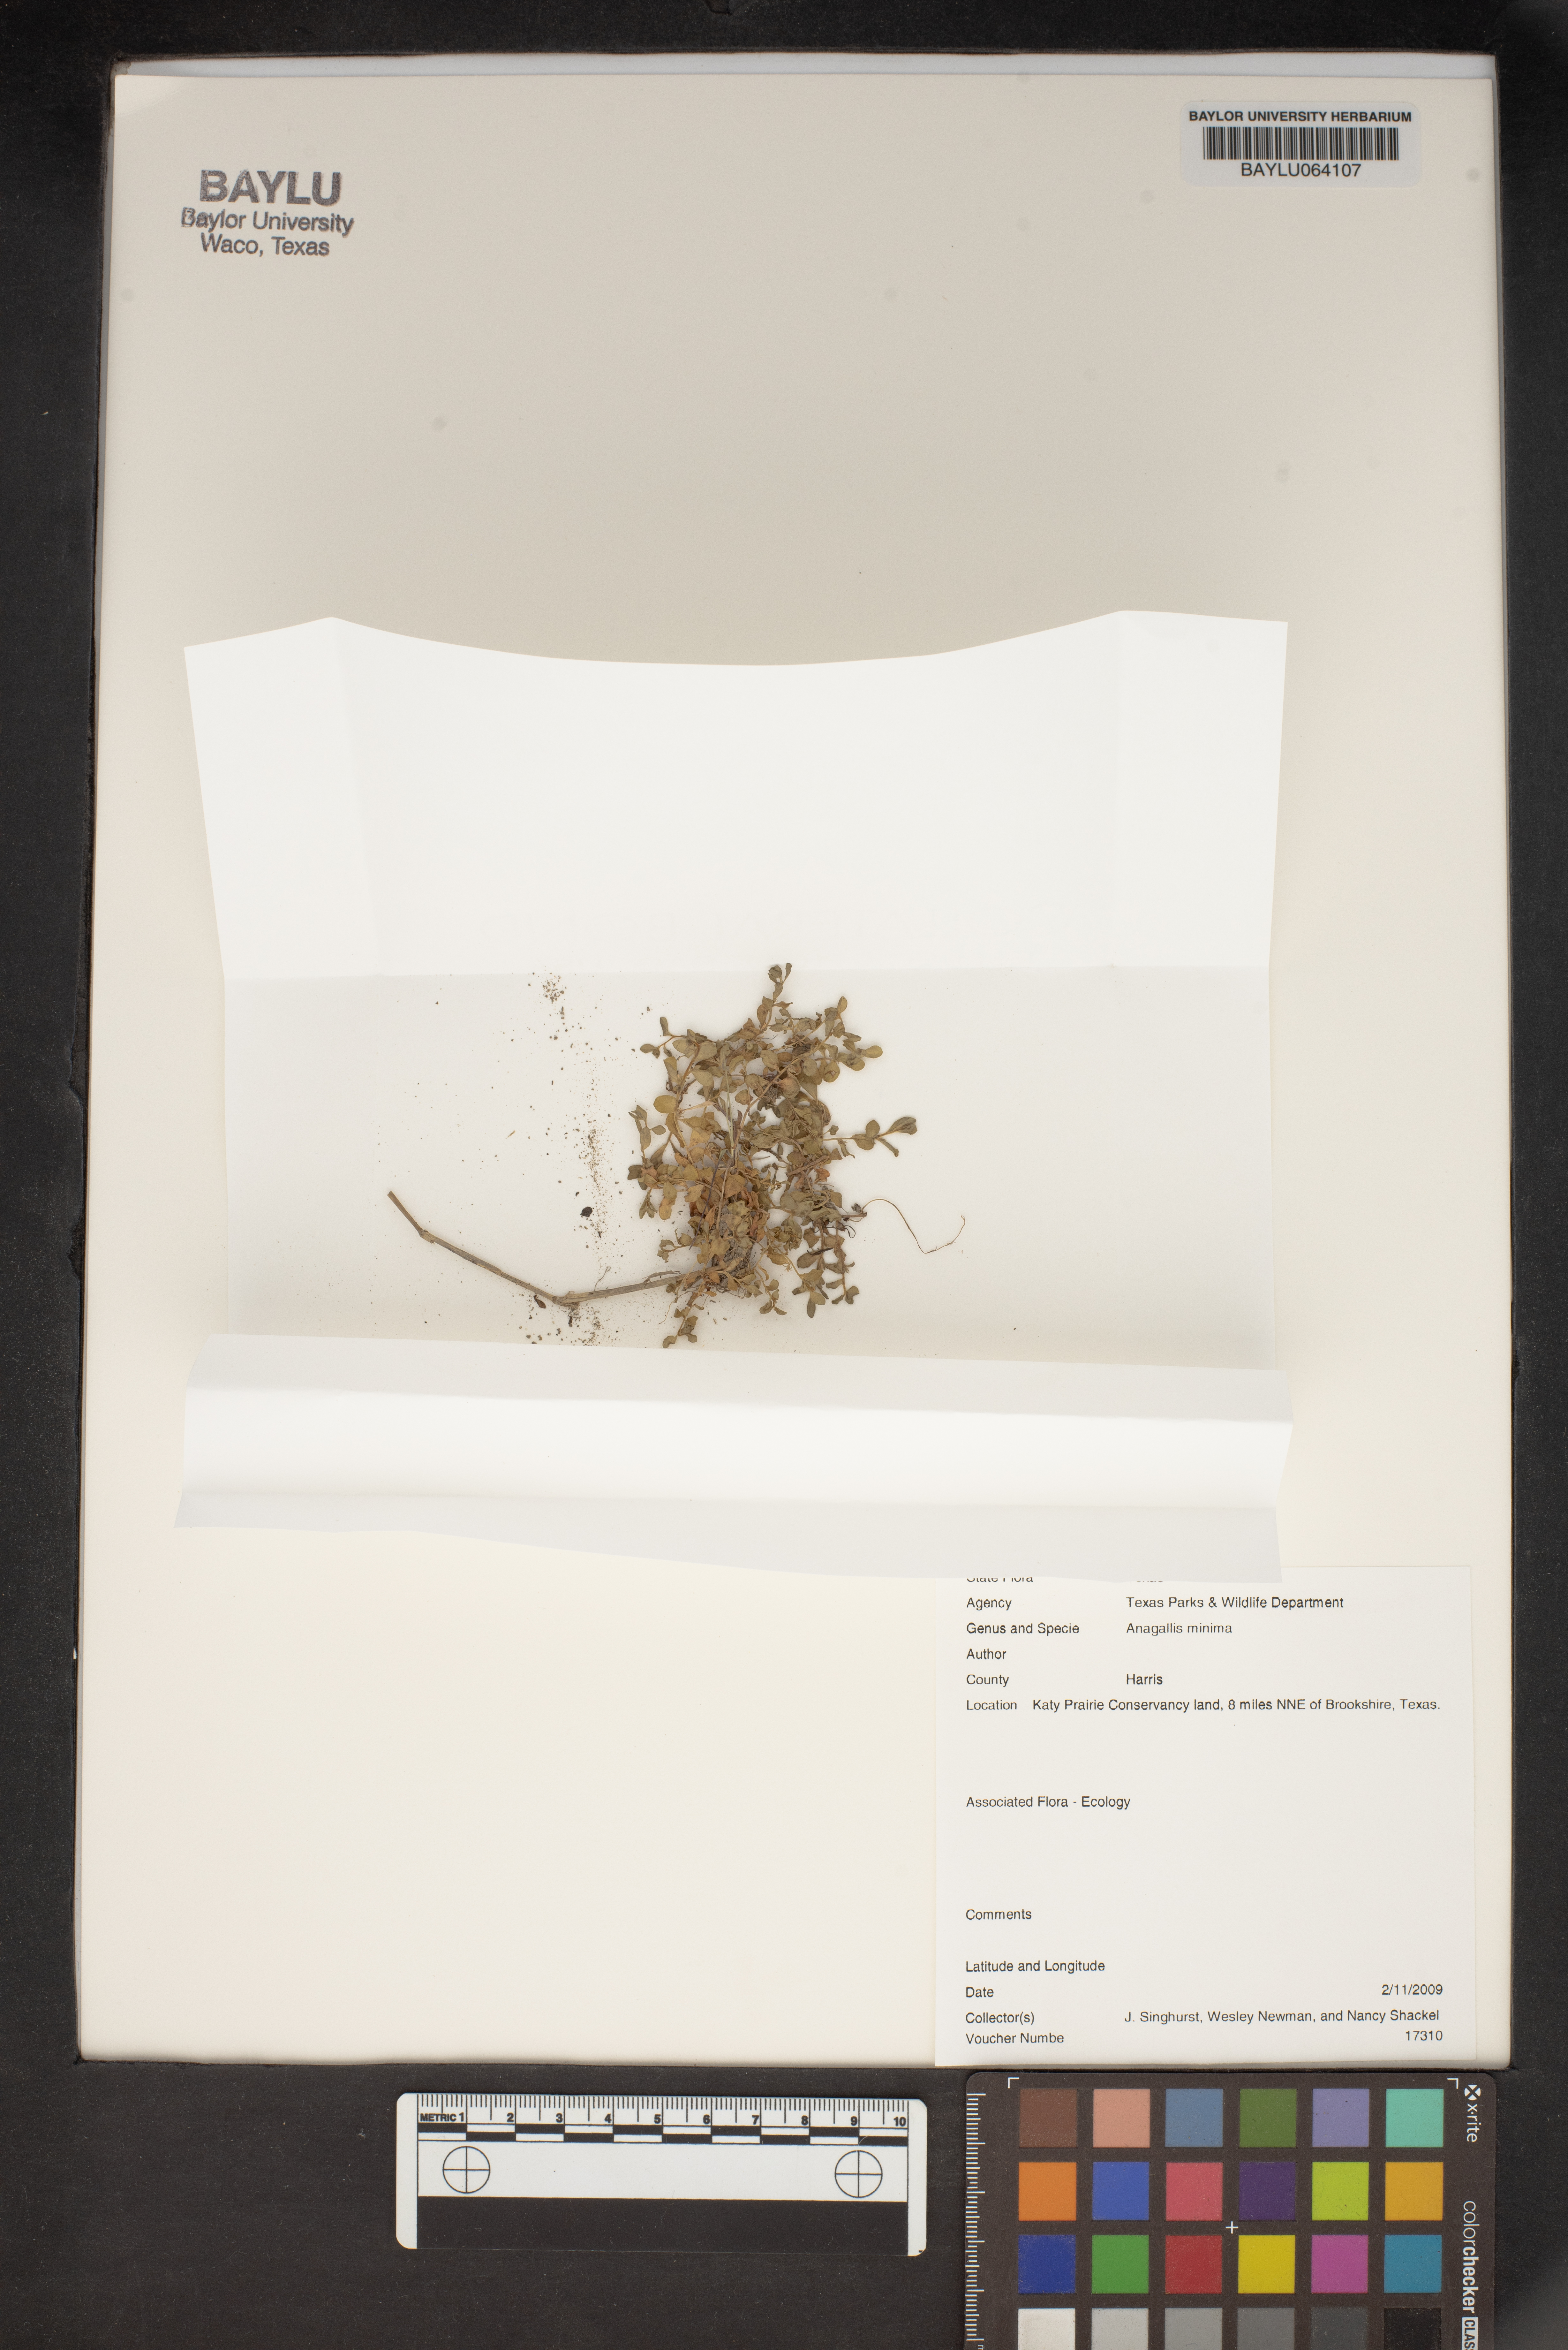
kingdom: Plantae
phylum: Tracheophyta
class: Magnoliopsida
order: Ericales
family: Primulaceae
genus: Lysimachia
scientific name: Lysimachia minima
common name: Chaffweed
